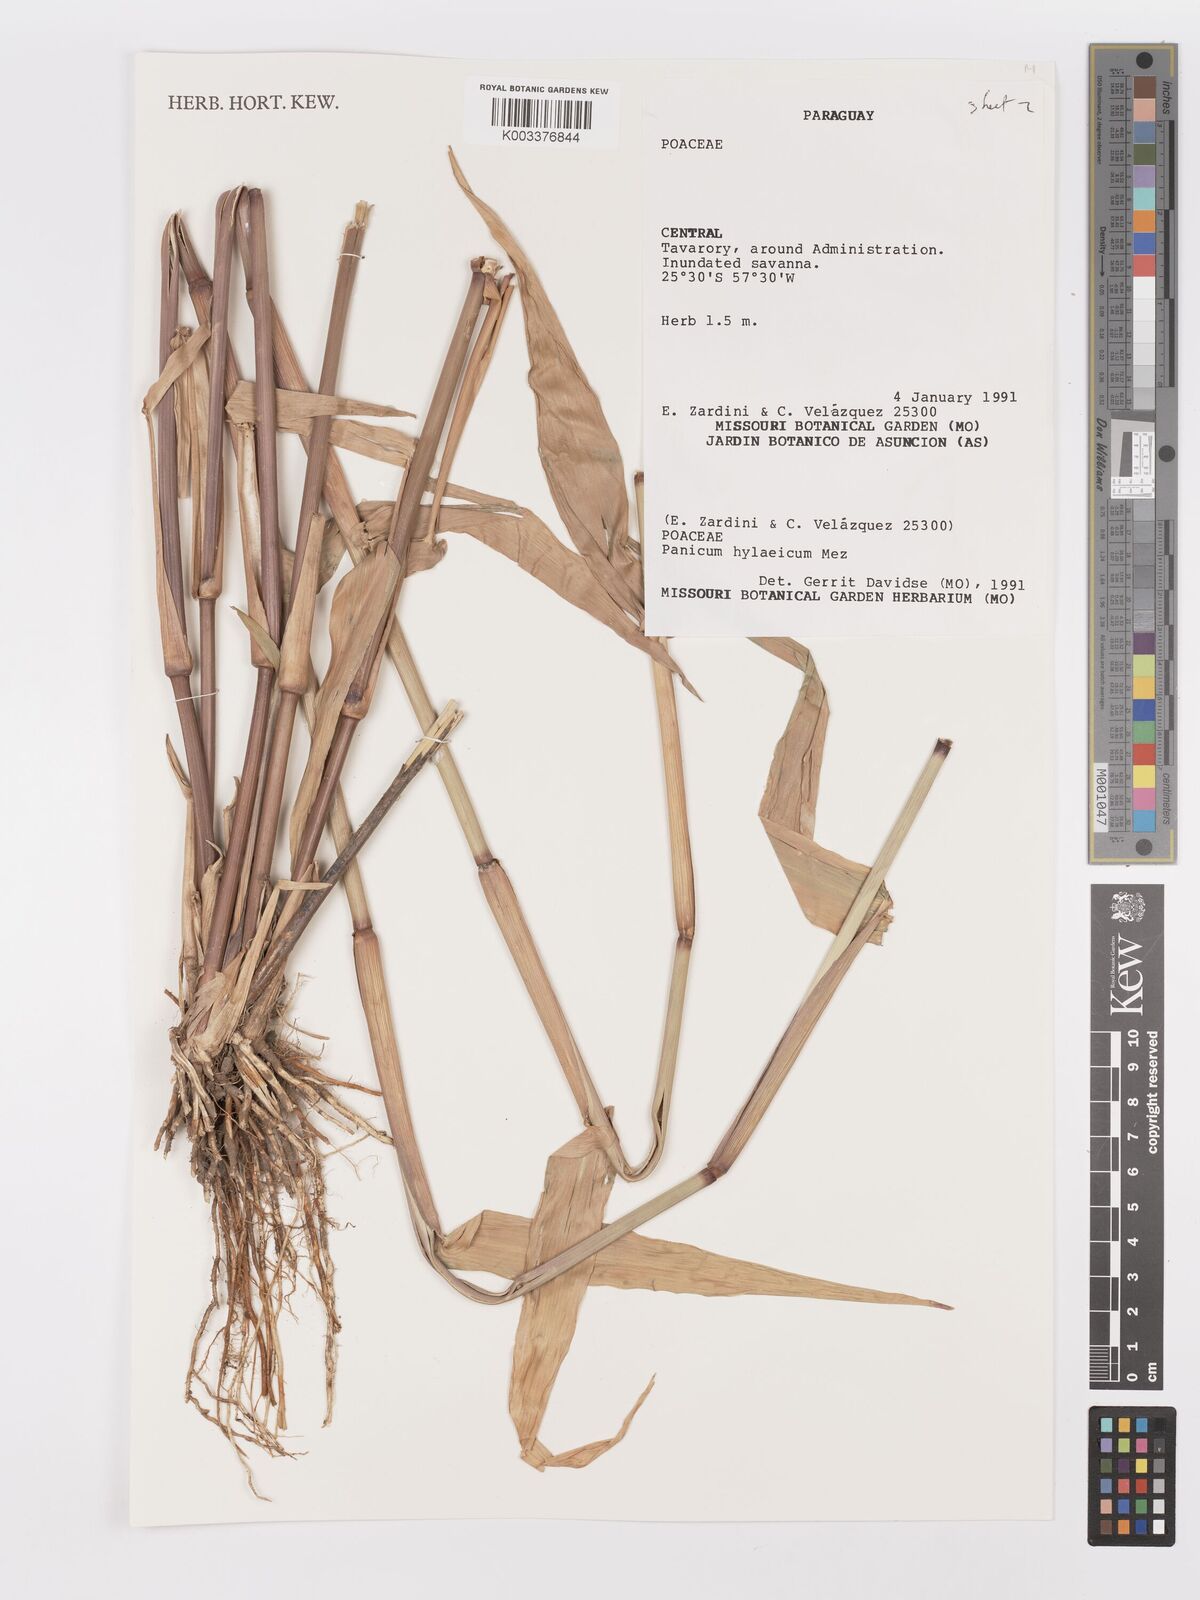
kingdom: Plantae
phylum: Tracheophyta
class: Liliopsida
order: Poales
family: Poaceae
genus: Rugoloa
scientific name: Rugoloa hylaeica
